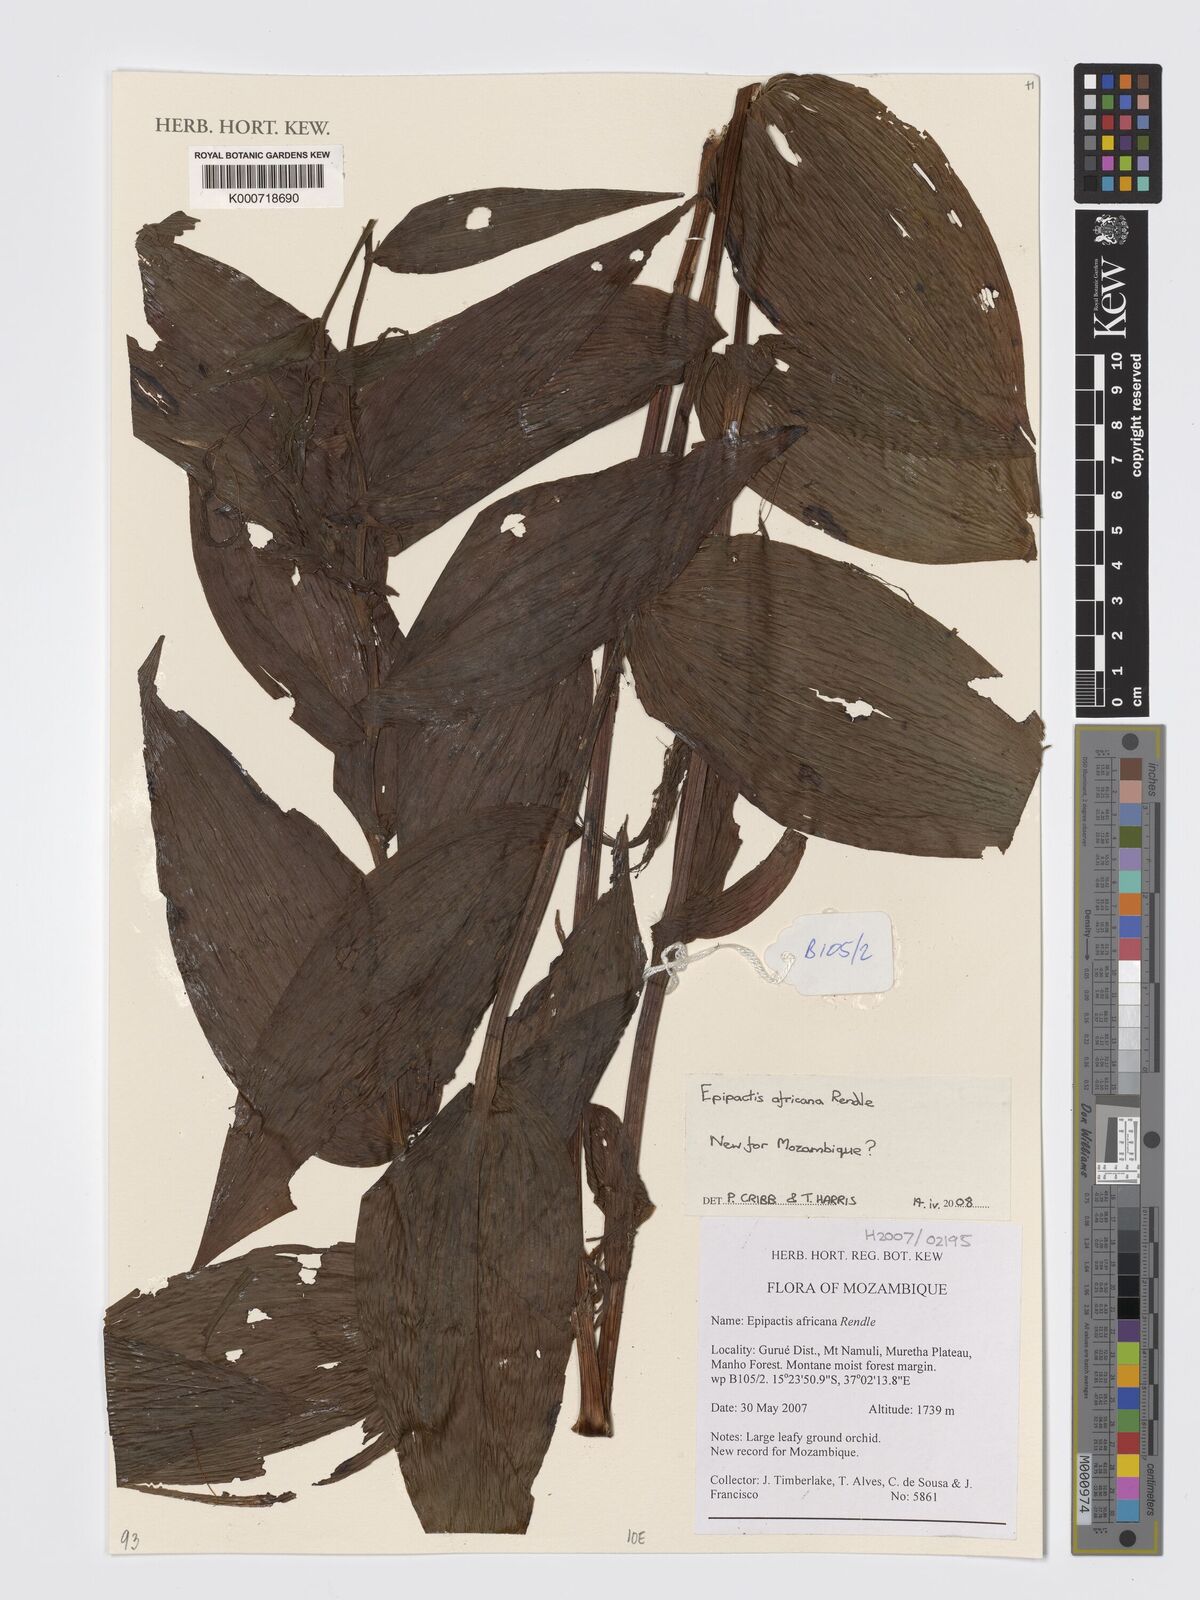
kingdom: Plantae
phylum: Tracheophyta
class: Liliopsida
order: Asparagales
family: Orchidaceae
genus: Epipactis
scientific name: Epipactis africana
